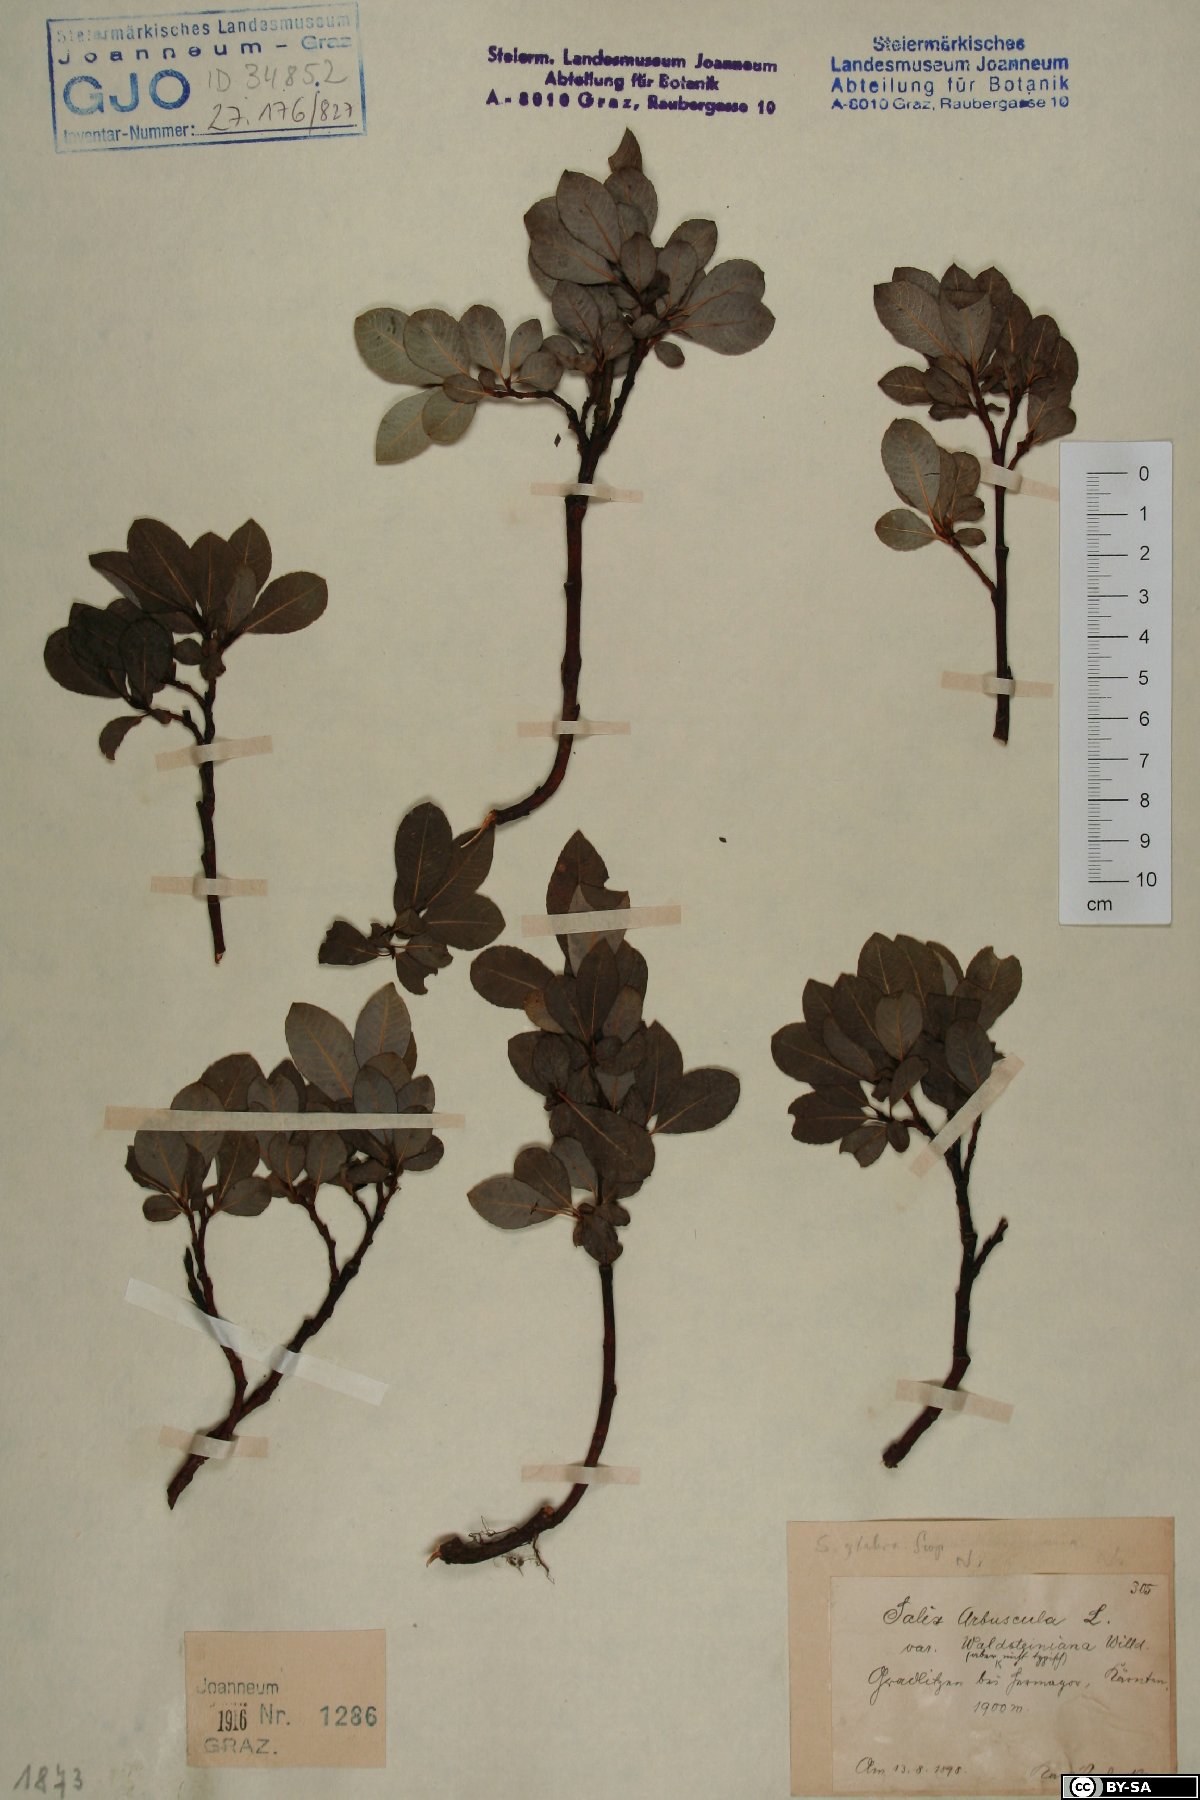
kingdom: Plantae
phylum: Tracheophyta
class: Magnoliopsida
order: Malpighiales
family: Salicaceae
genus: Salix
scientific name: Salix glabra
